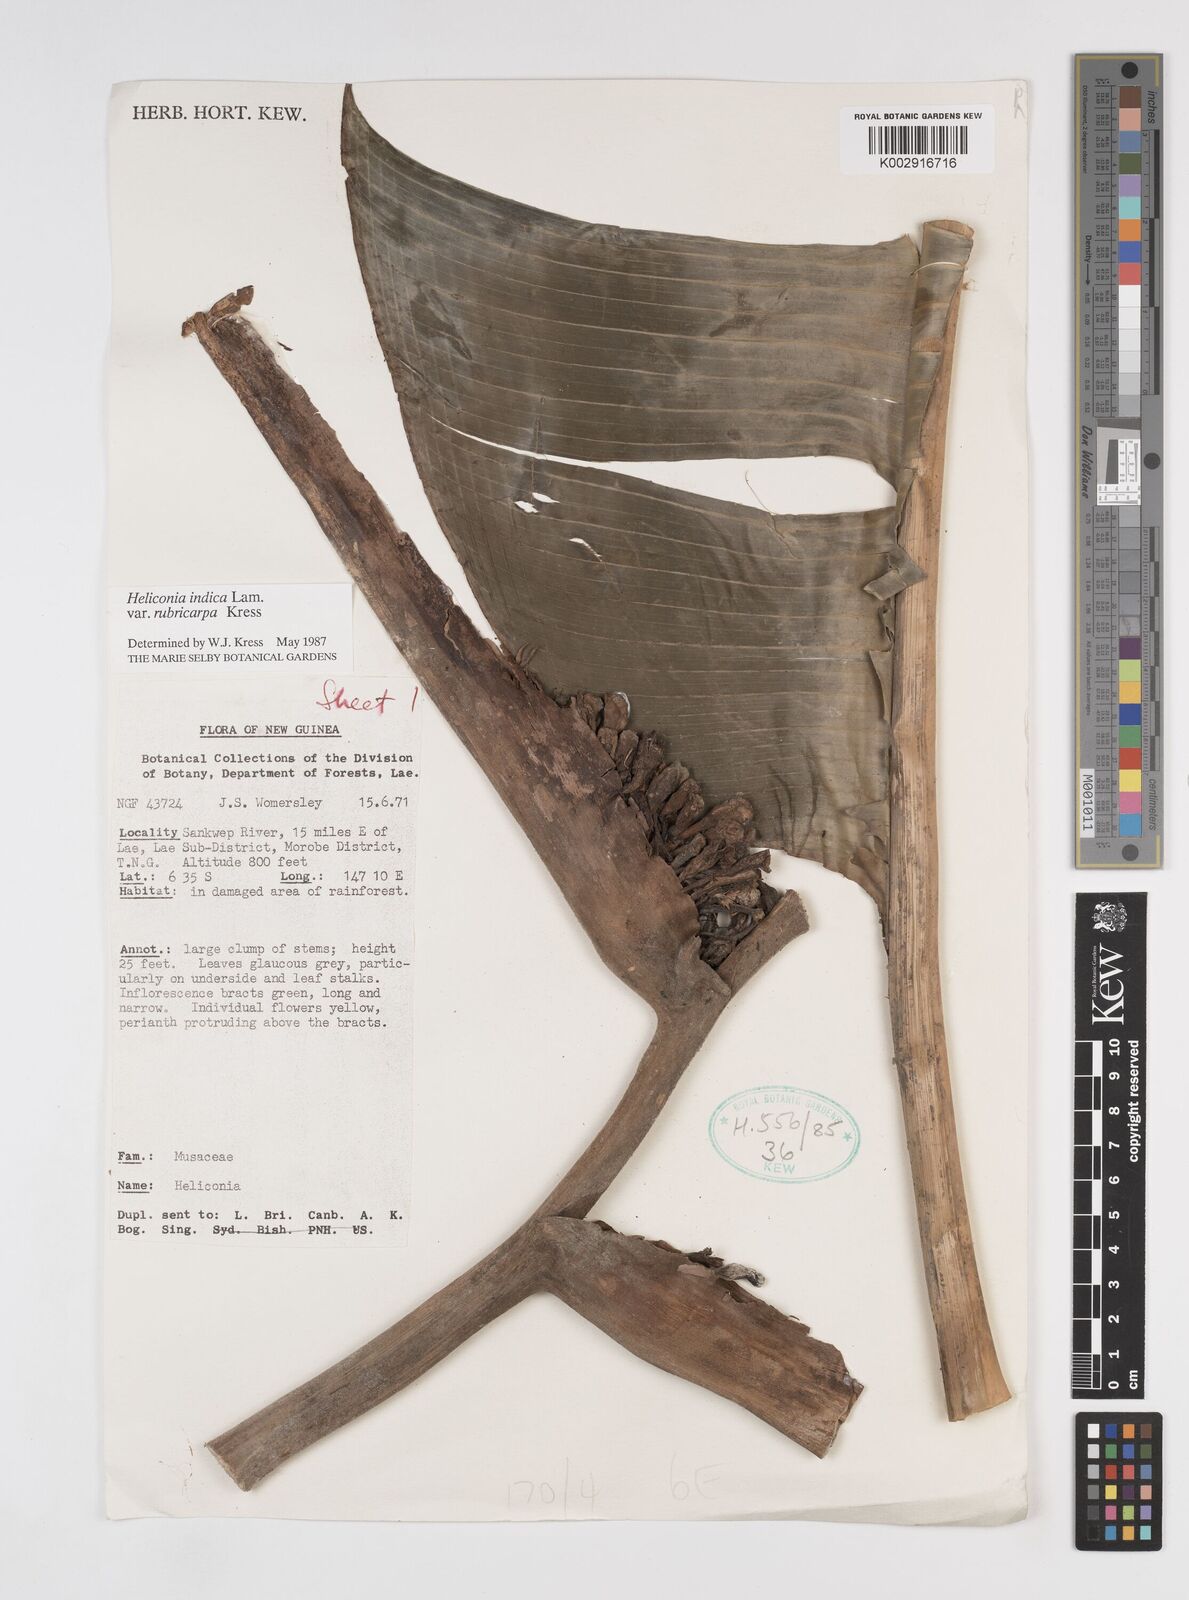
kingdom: Plantae
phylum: Tracheophyta
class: Liliopsida
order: Zingiberales
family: Heliconiaceae
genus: Heliconia
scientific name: Heliconia indica
